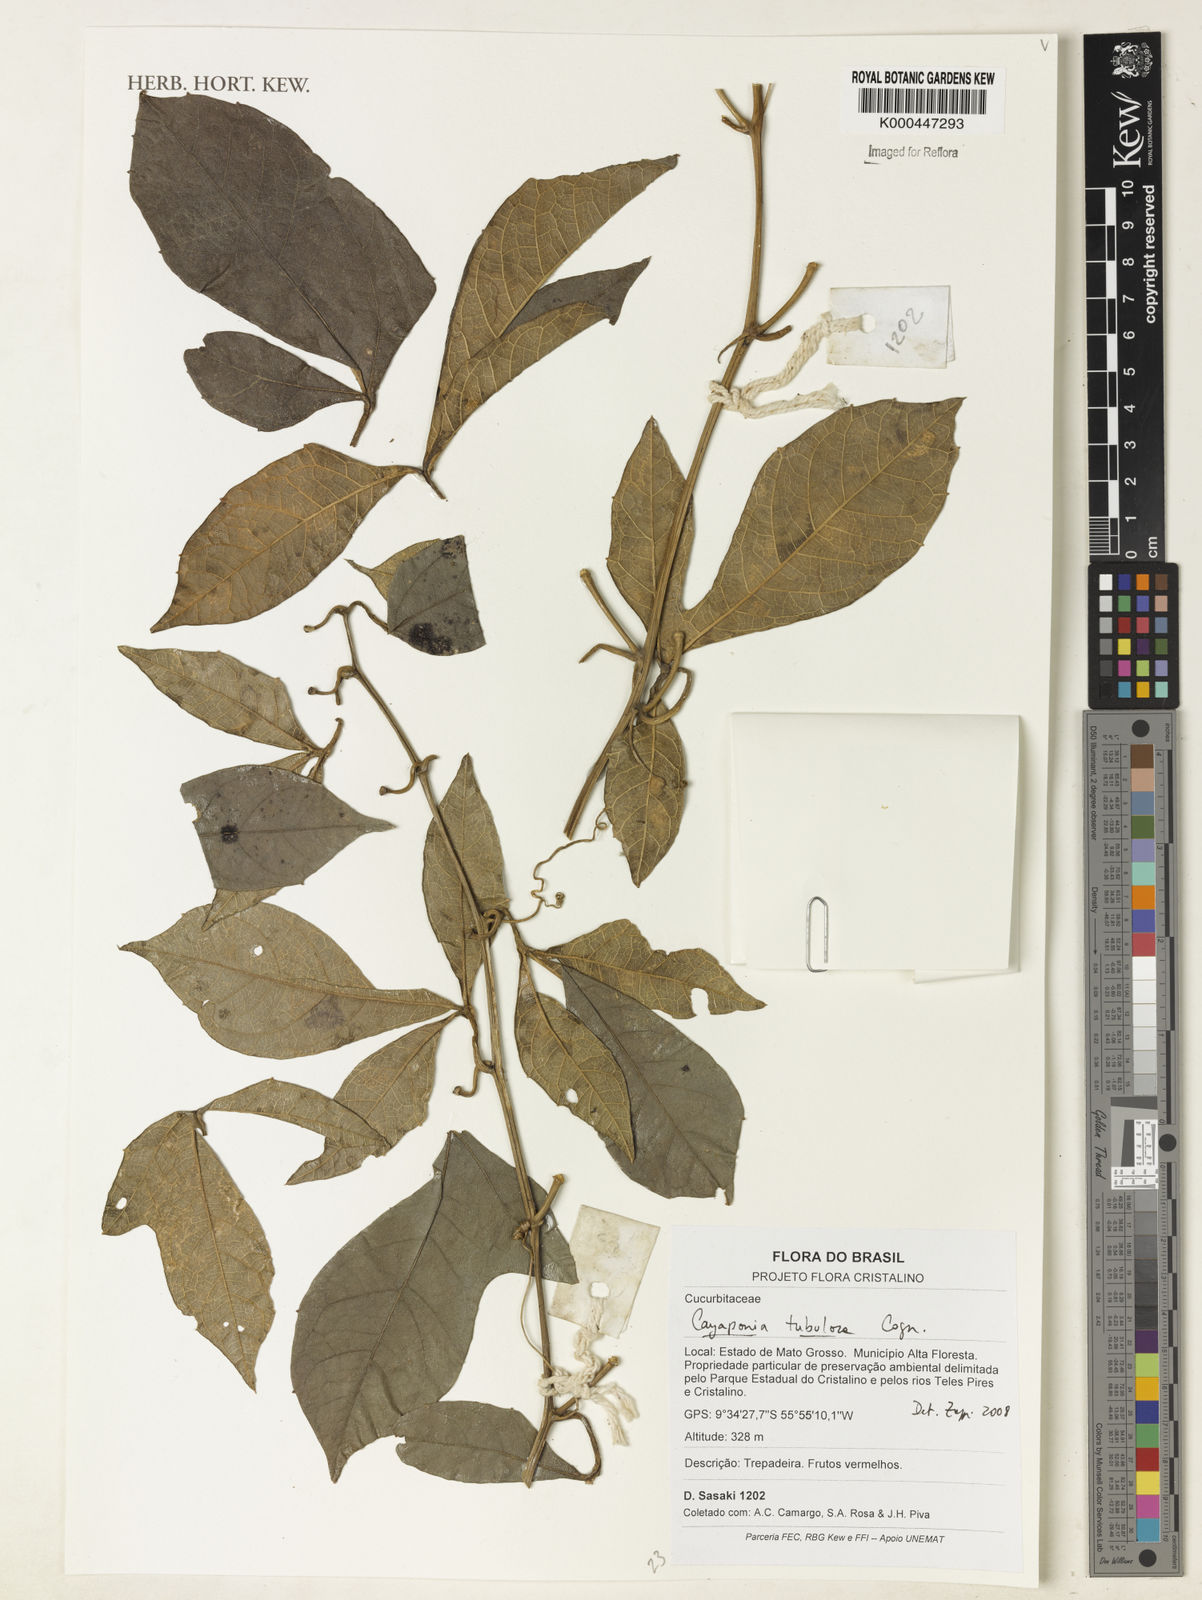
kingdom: Plantae
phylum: Tracheophyta
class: Magnoliopsida
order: Cucurbitales
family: Cucurbitaceae
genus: Cayaponia
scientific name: Cayaponia tubulosa
